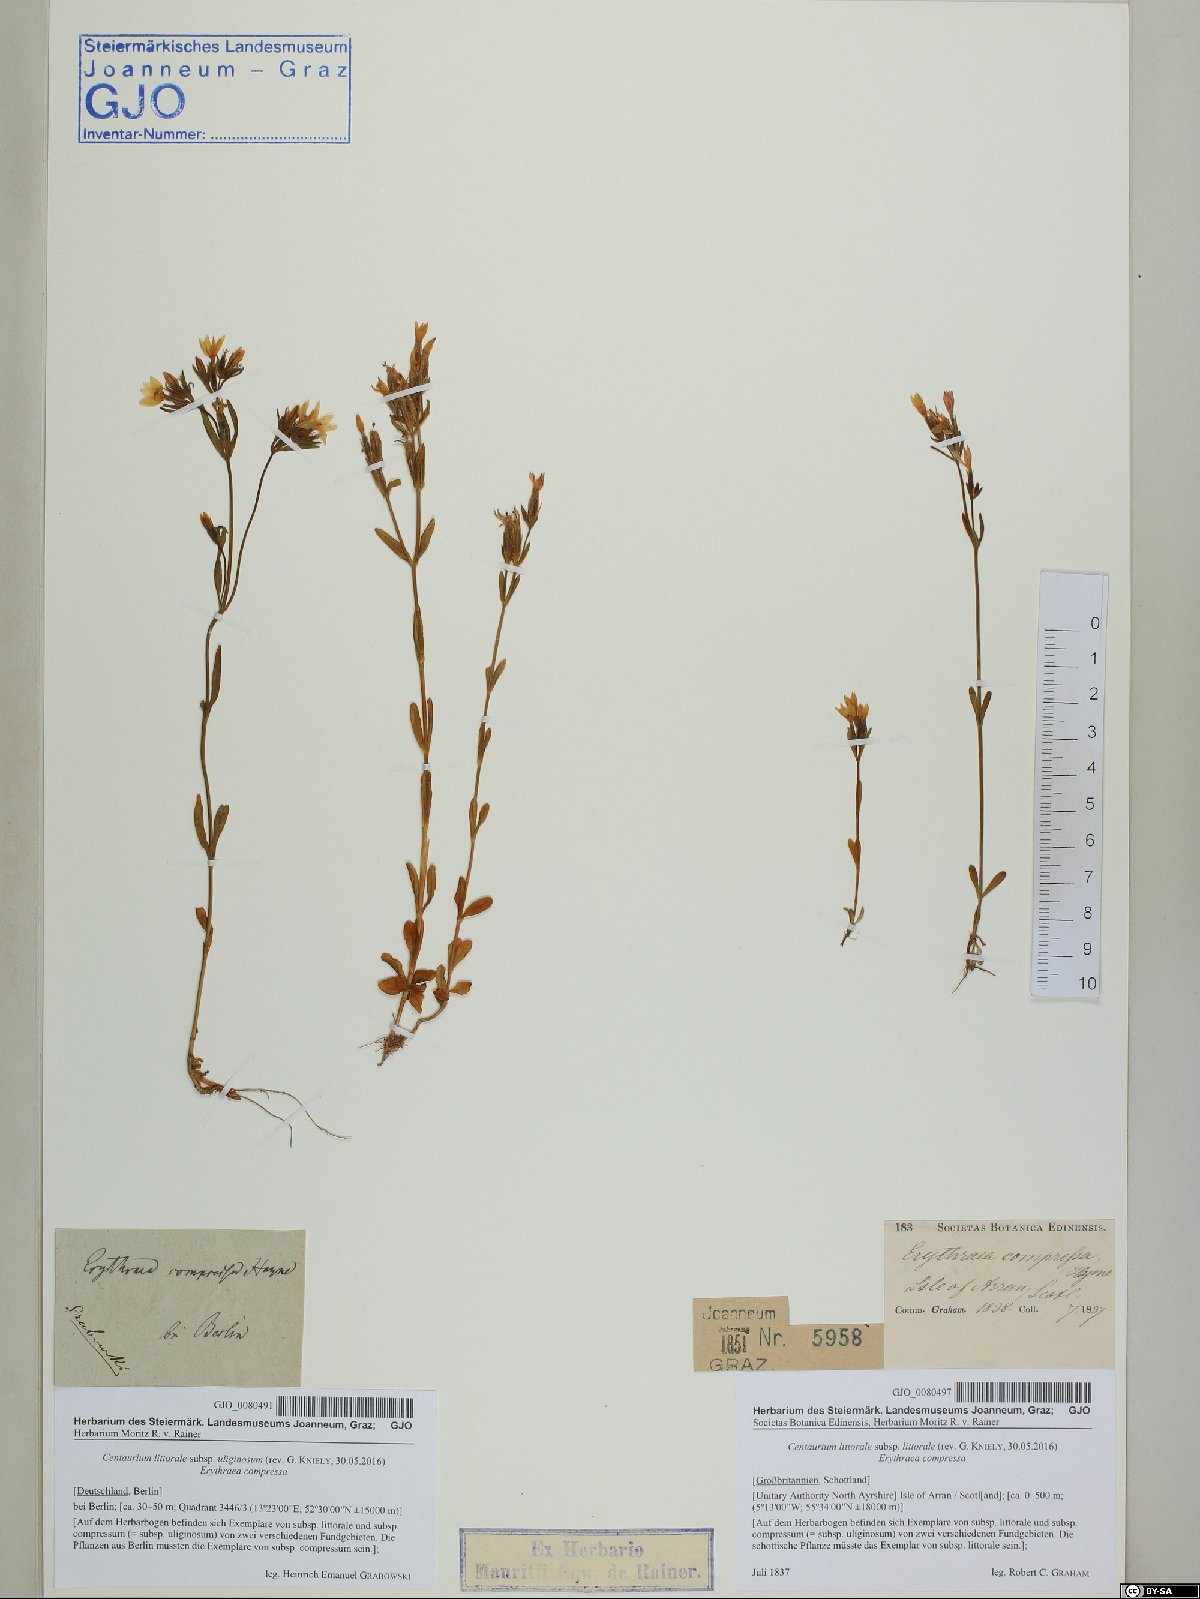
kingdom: Plantae
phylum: Tracheophyta
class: Magnoliopsida
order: Gentianales
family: Gentianaceae
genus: Centaurium
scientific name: Centaurium littorale
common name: Seaside centaury
